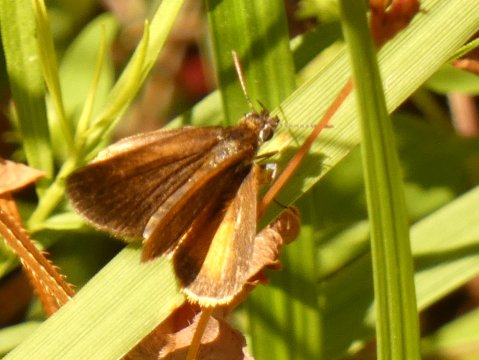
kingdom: Animalia
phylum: Arthropoda
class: Insecta
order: Lepidoptera
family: Hesperiidae
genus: Ancyloxypha
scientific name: Ancyloxypha numitor
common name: Least Skipper
